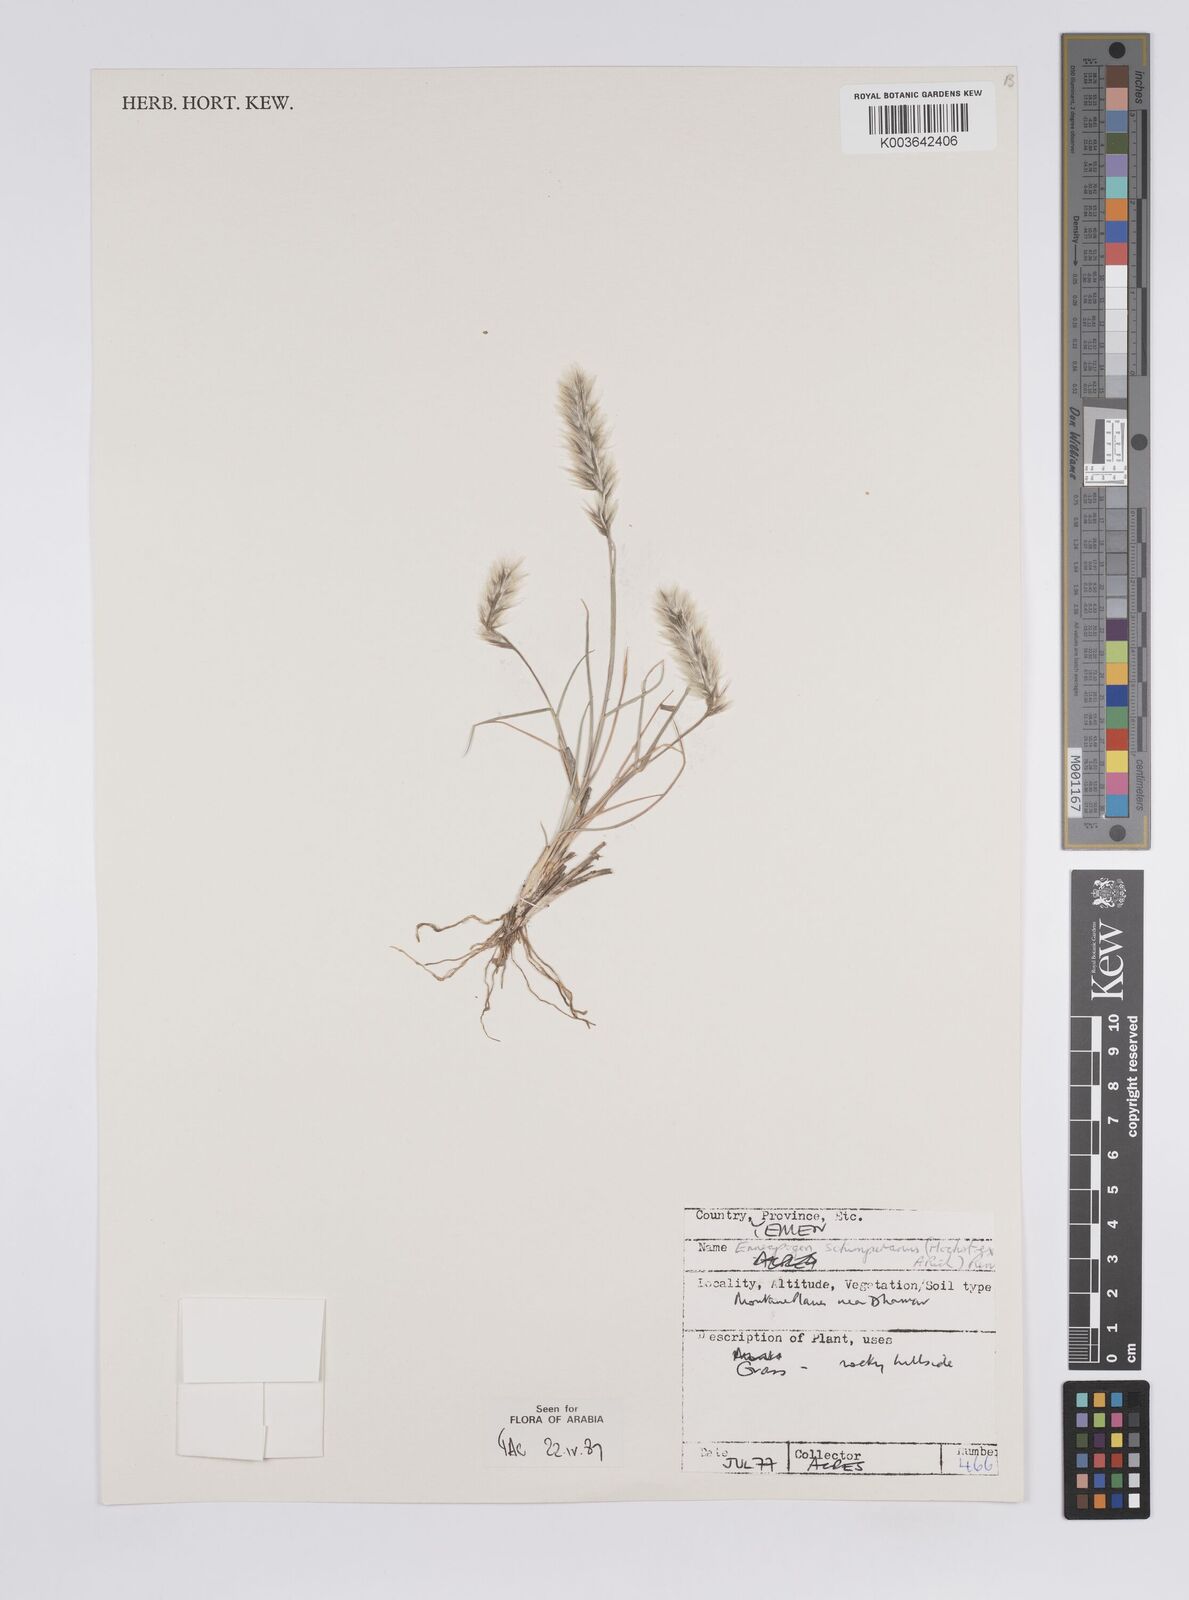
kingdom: Plantae
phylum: Tracheophyta
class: Liliopsida
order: Poales
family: Poaceae
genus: Enneapogon
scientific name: Enneapogon persicus
